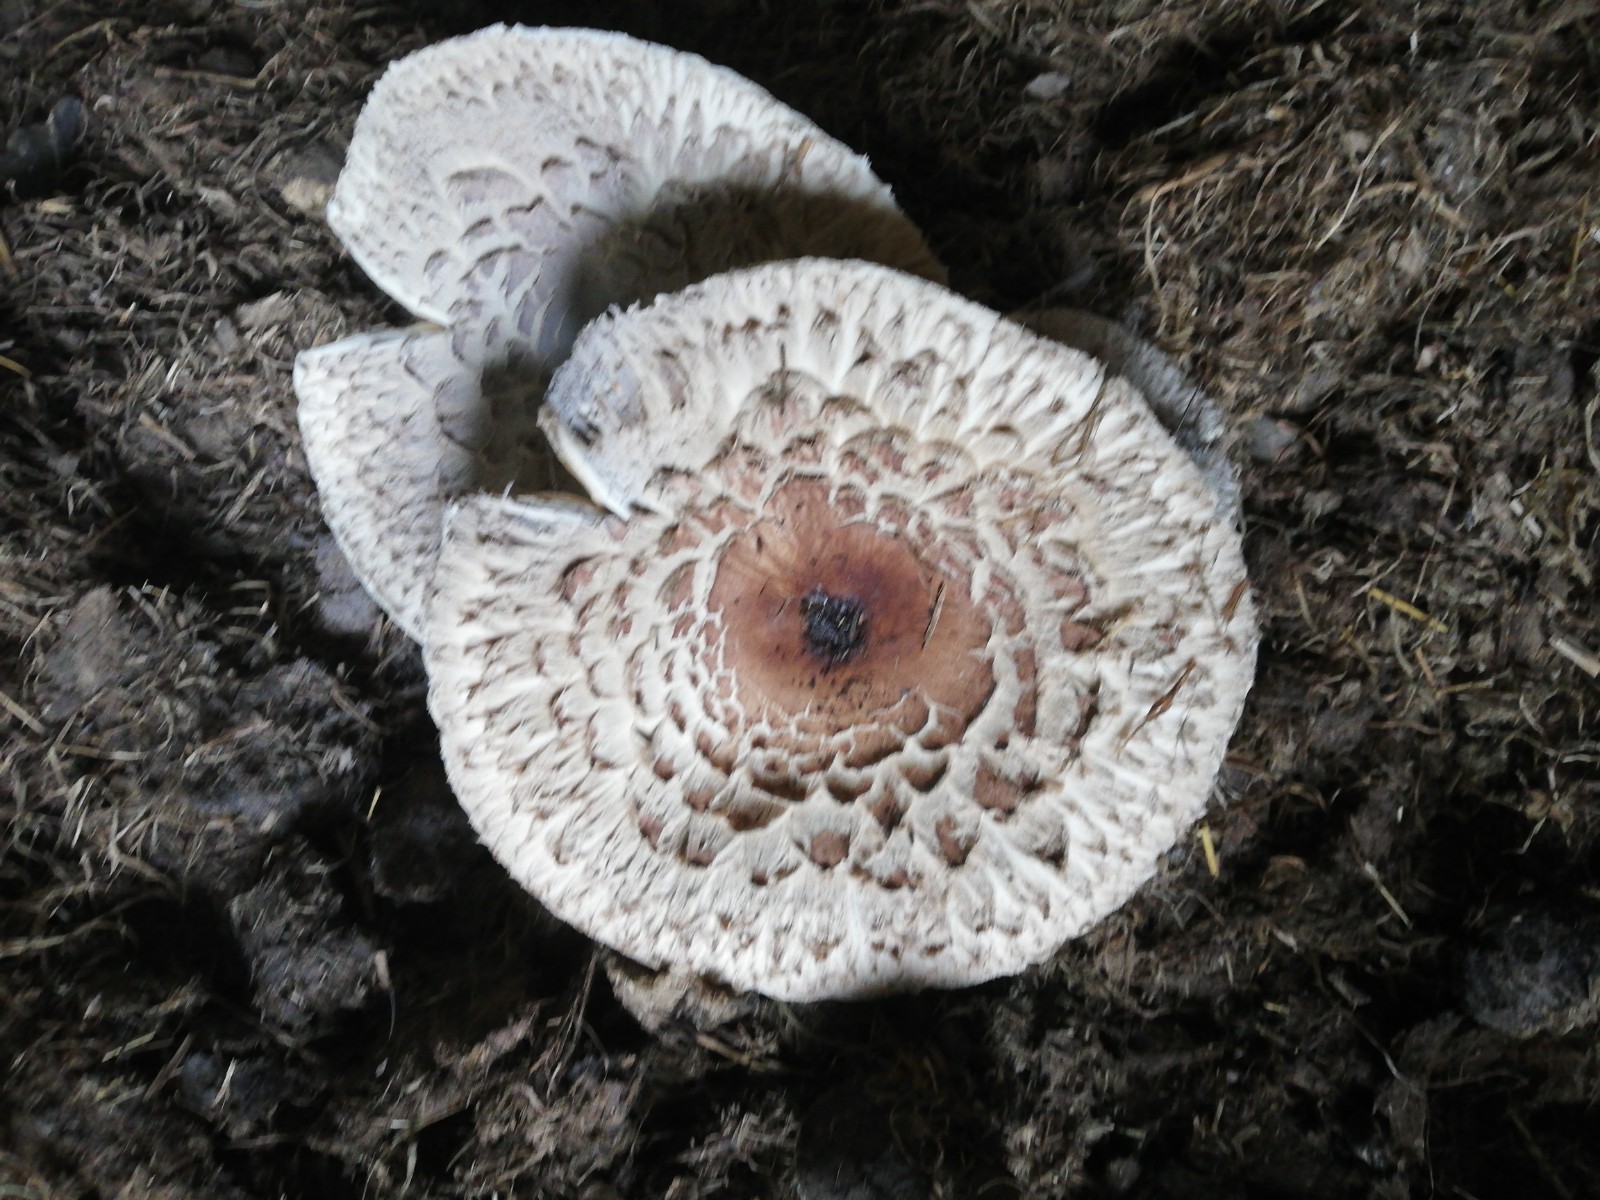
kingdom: Fungi
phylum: Basidiomycota
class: Agaricomycetes
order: Agaricales
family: Agaricaceae
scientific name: Agaricaceae
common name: champignonfamilien
